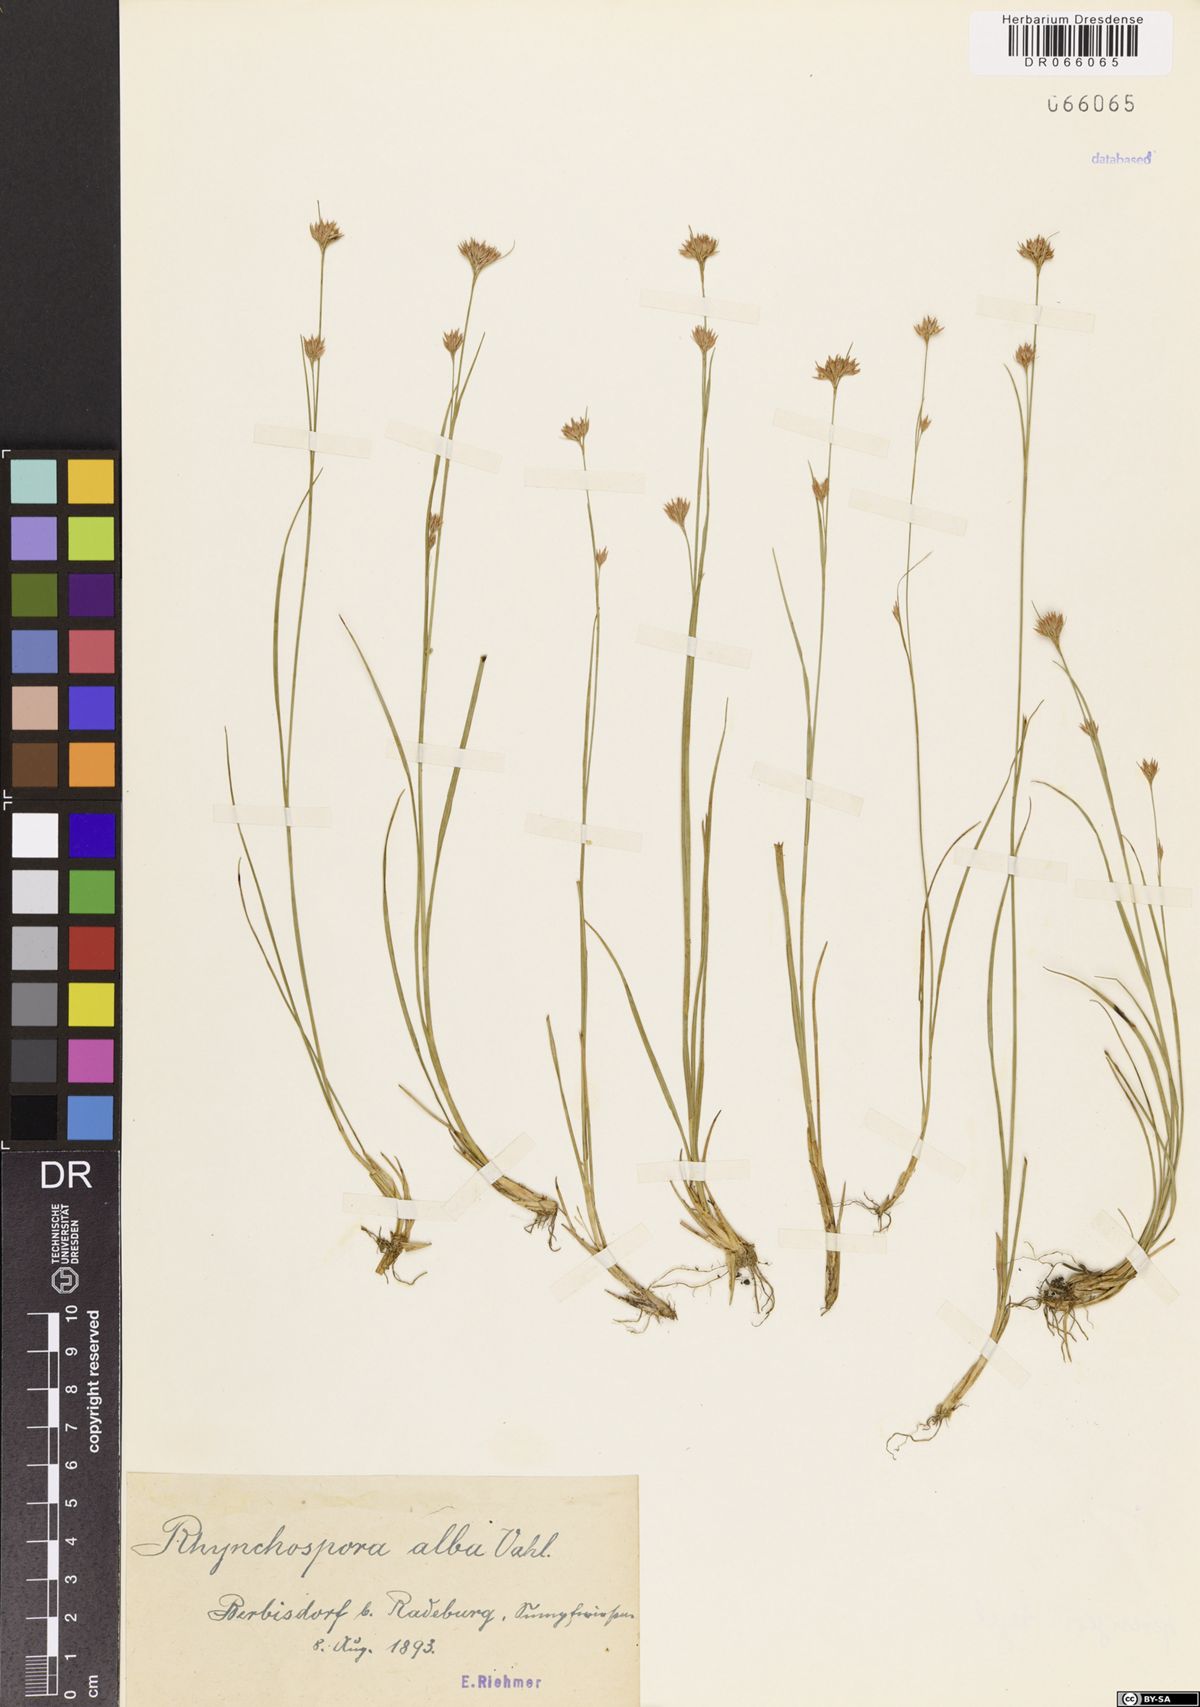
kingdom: Plantae
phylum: Tracheophyta
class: Liliopsida
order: Poales
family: Cyperaceae
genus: Rhynchospora
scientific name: Rhynchospora alba
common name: White beak-sedge
